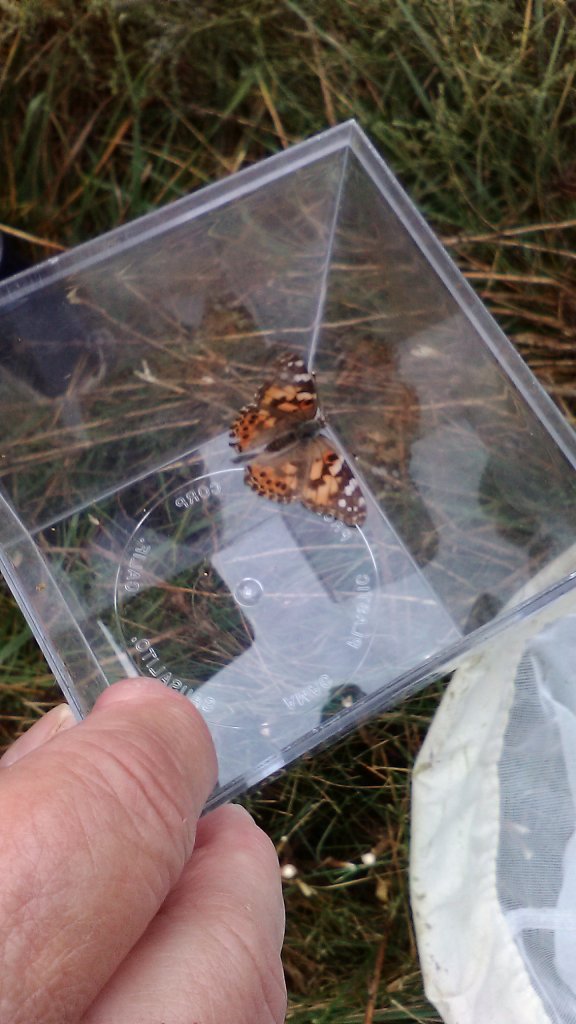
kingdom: Animalia
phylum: Arthropoda
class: Insecta
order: Lepidoptera
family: Nymphalidae
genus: Vanessa
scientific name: Vanessa cardui
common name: Painted Lady
